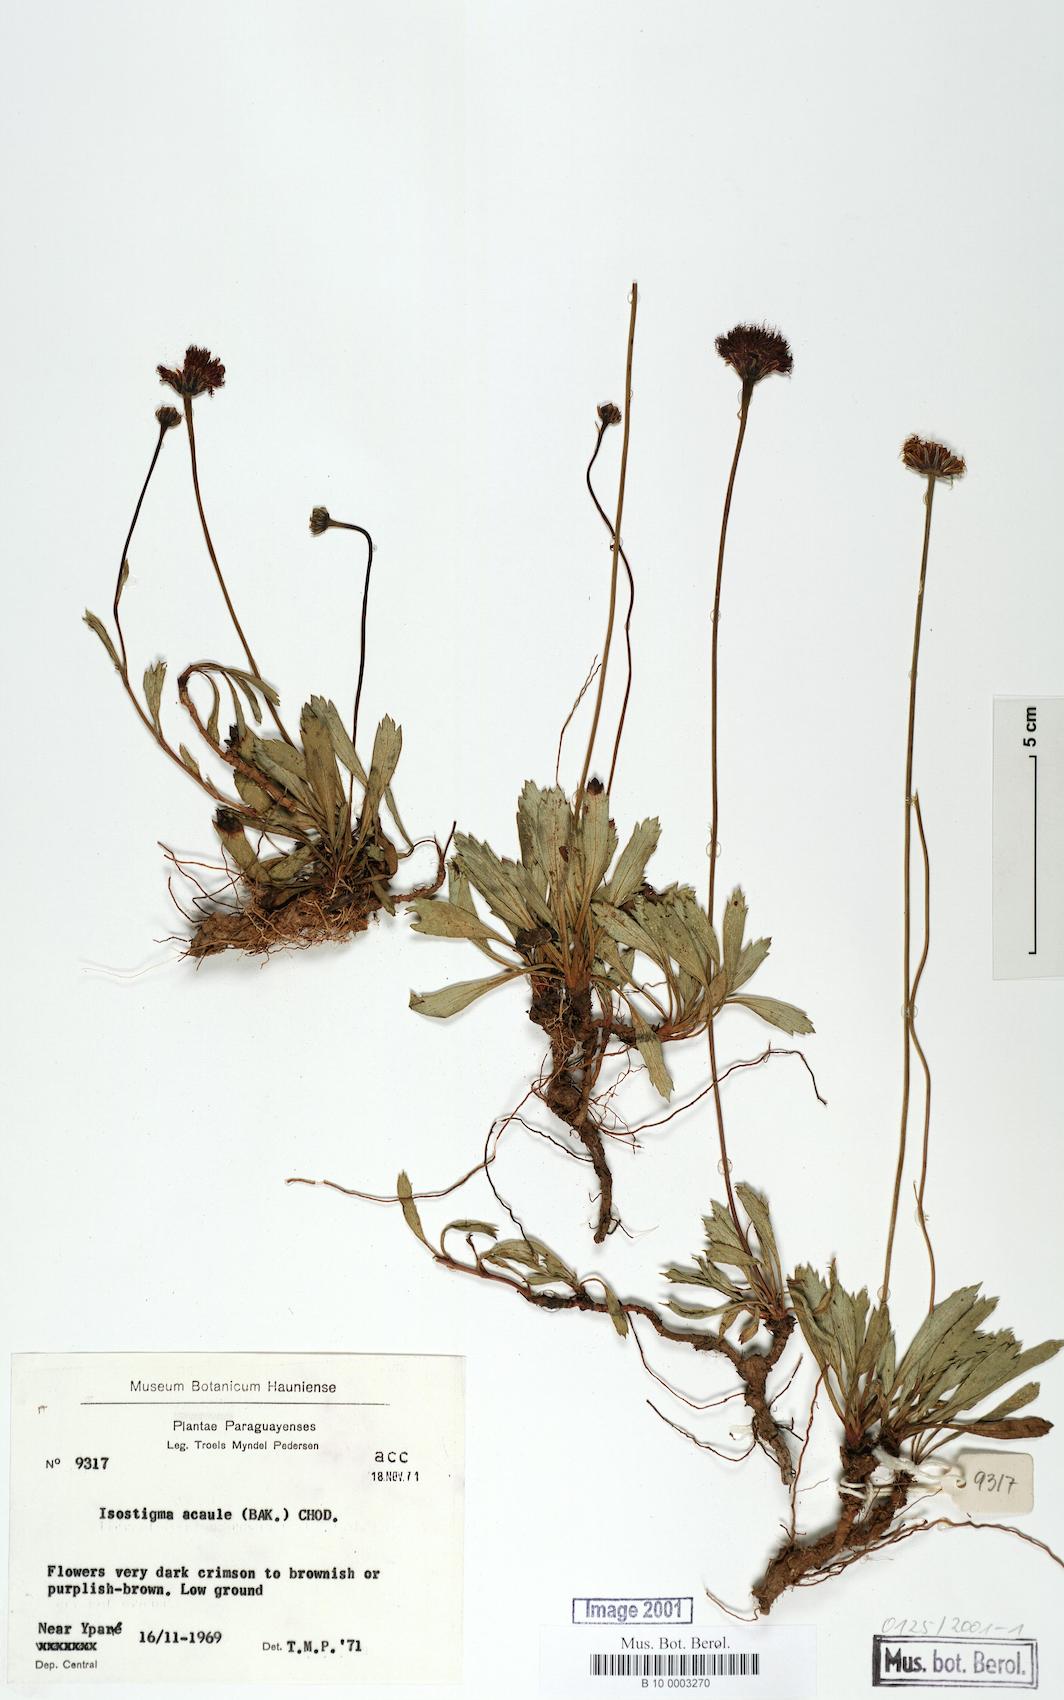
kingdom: Plantae
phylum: Tracheophyta
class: Magnoliopsida
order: Asterales
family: Asteraceae
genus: Isostigma
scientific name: Isostigma acaule
